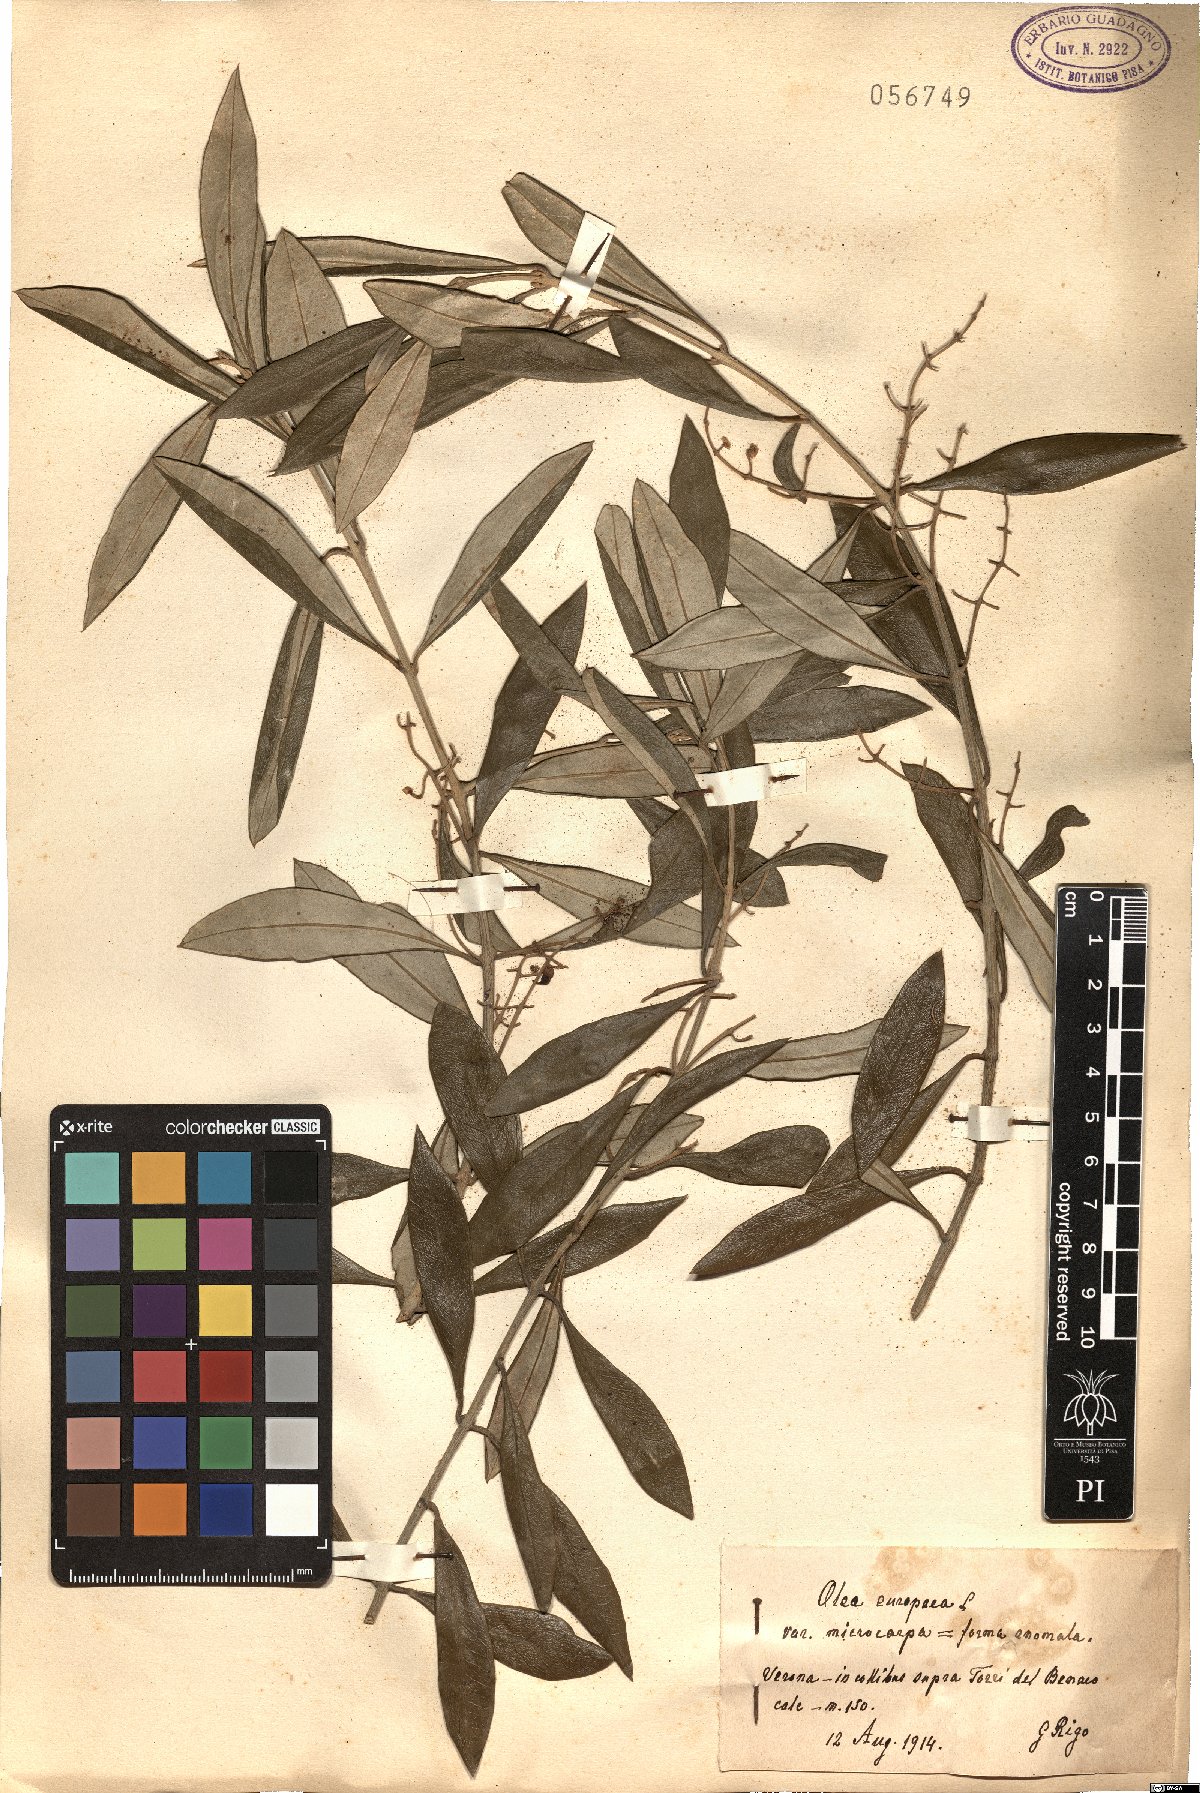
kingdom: Plantae
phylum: Tracheophyta
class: Magnoliopsida
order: Lamiales
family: Oleaceae
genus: Olea
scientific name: Olea europaea
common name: Olive
